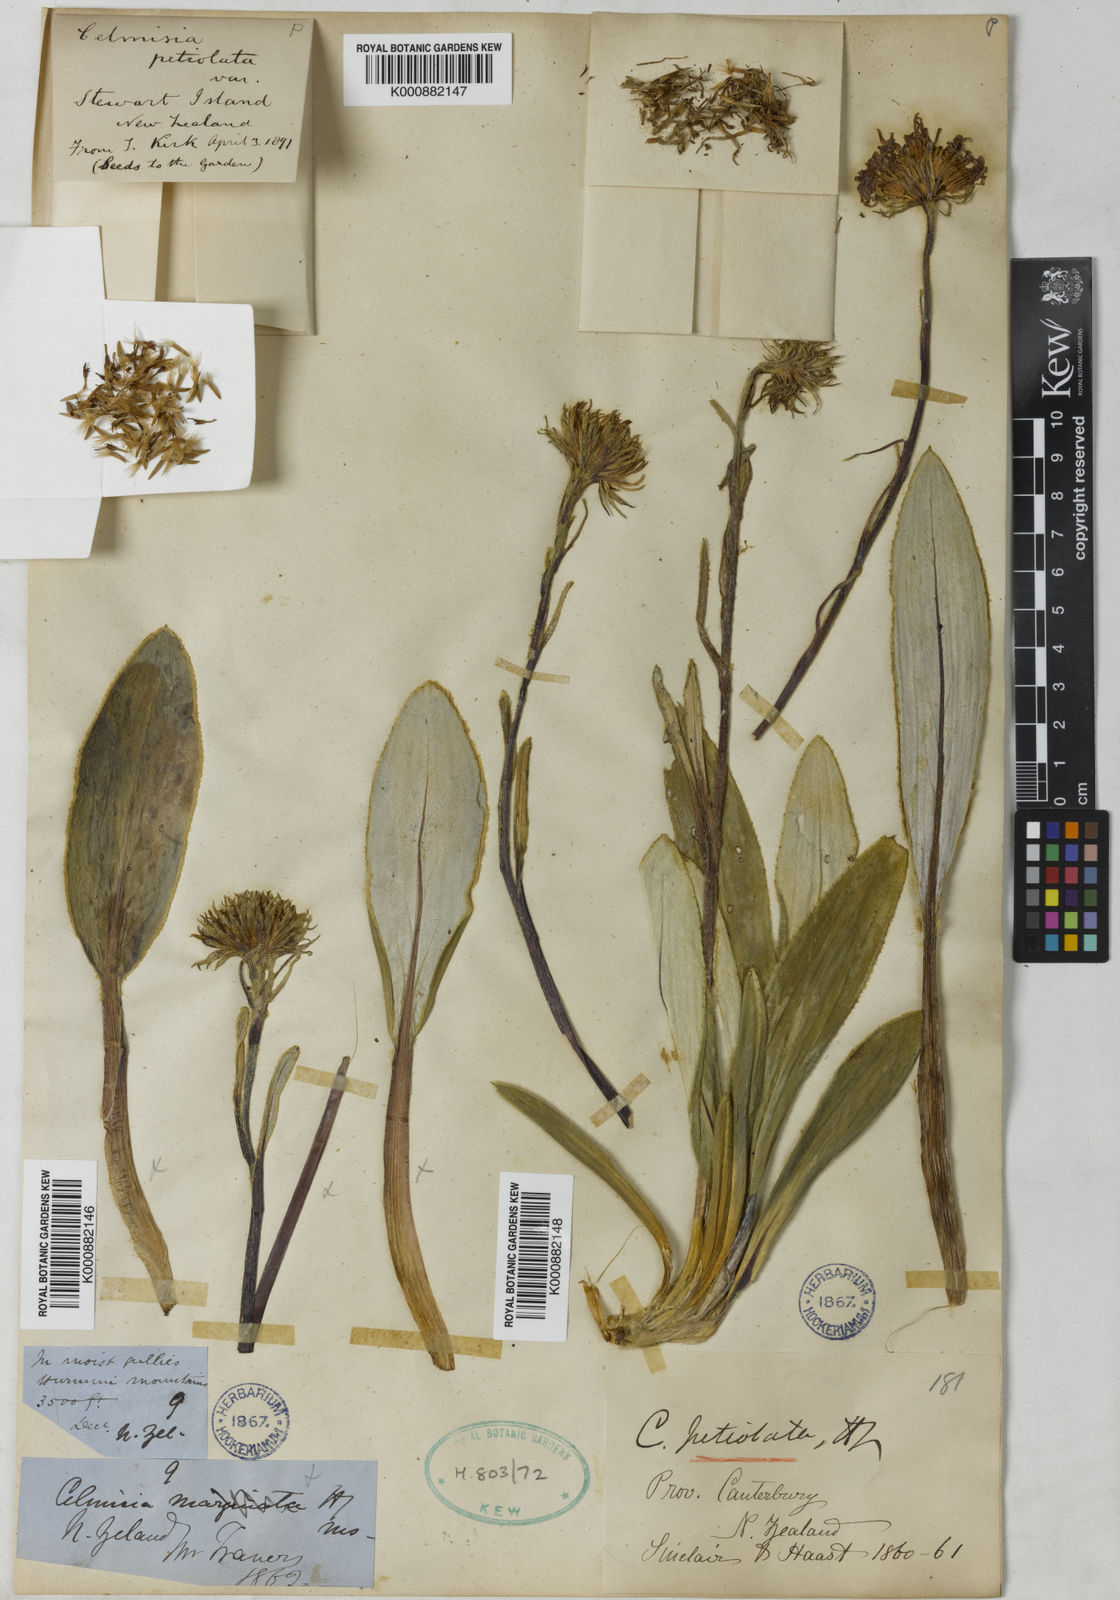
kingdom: Plantae
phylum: Tracheophyta
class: Magnoliopsida
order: Asterales
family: Asteraceae
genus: Celmisia
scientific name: Celmisia petiolata
